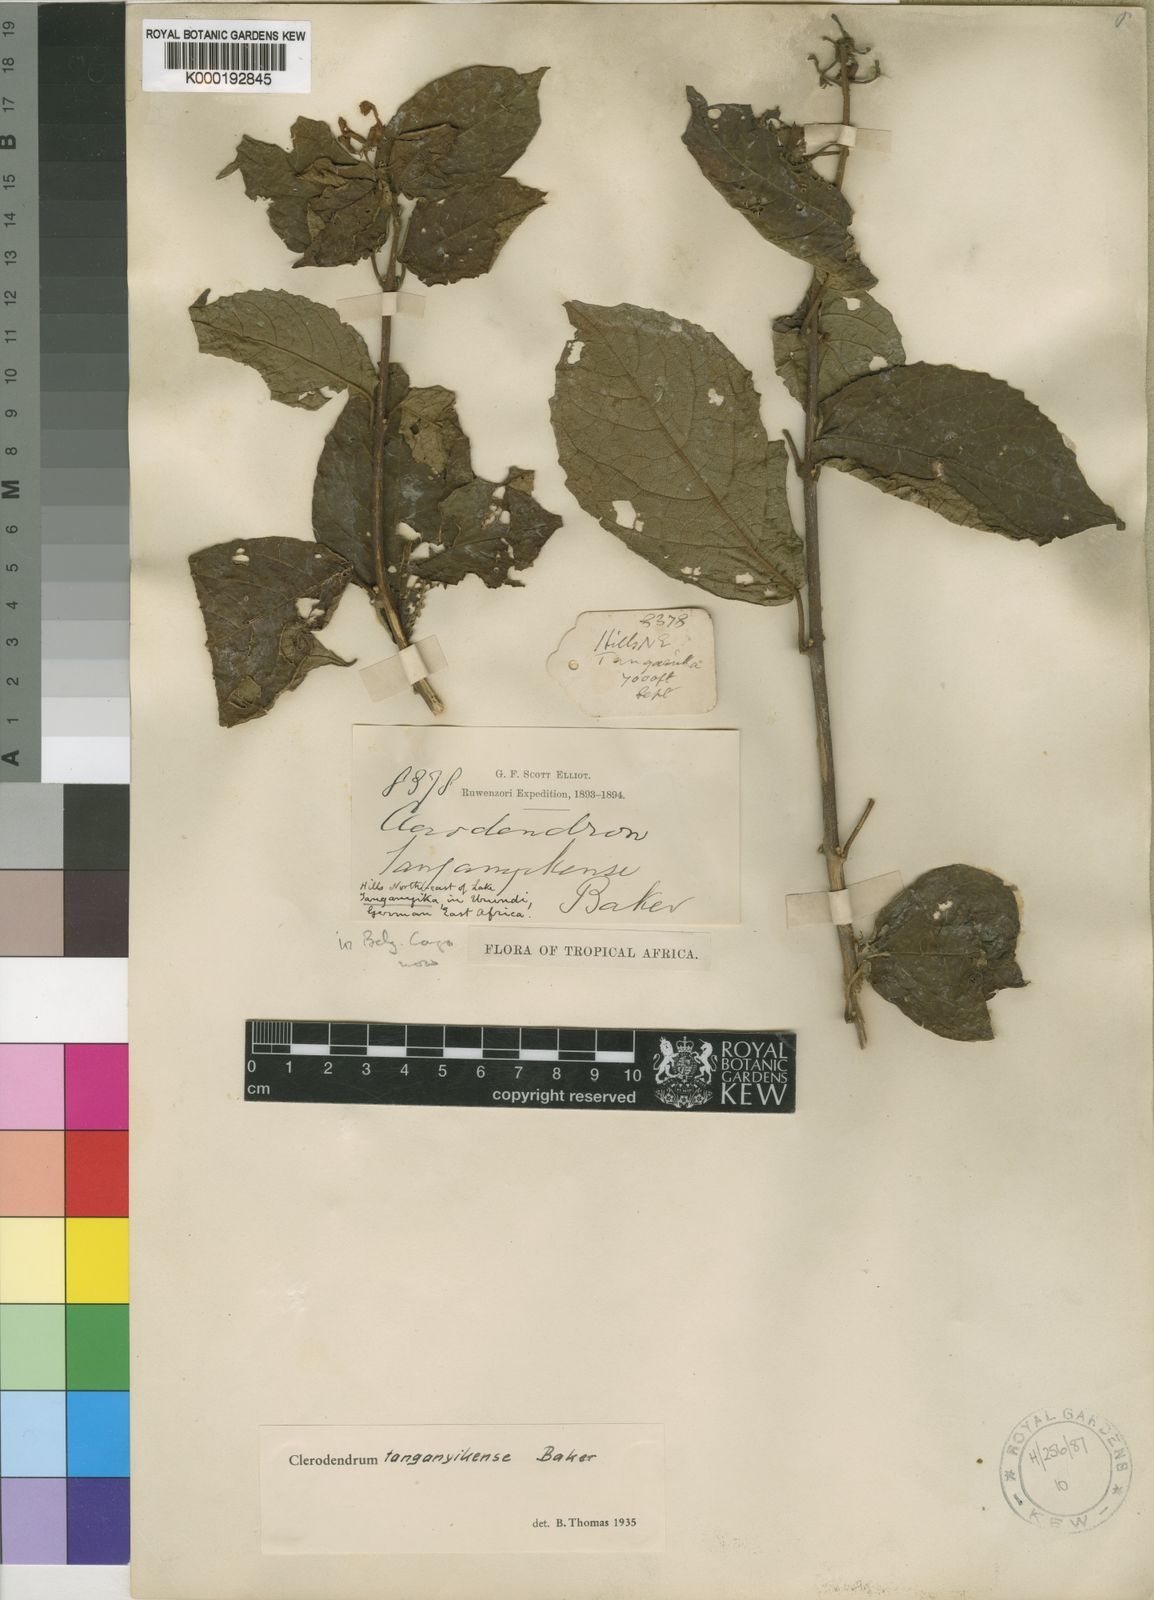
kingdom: Plantae
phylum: Tracheophyta
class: Magnoliopsida
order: Lamiales
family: Lamiaceae
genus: Clerodendrum
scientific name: Clerodendrum tanganyikense
